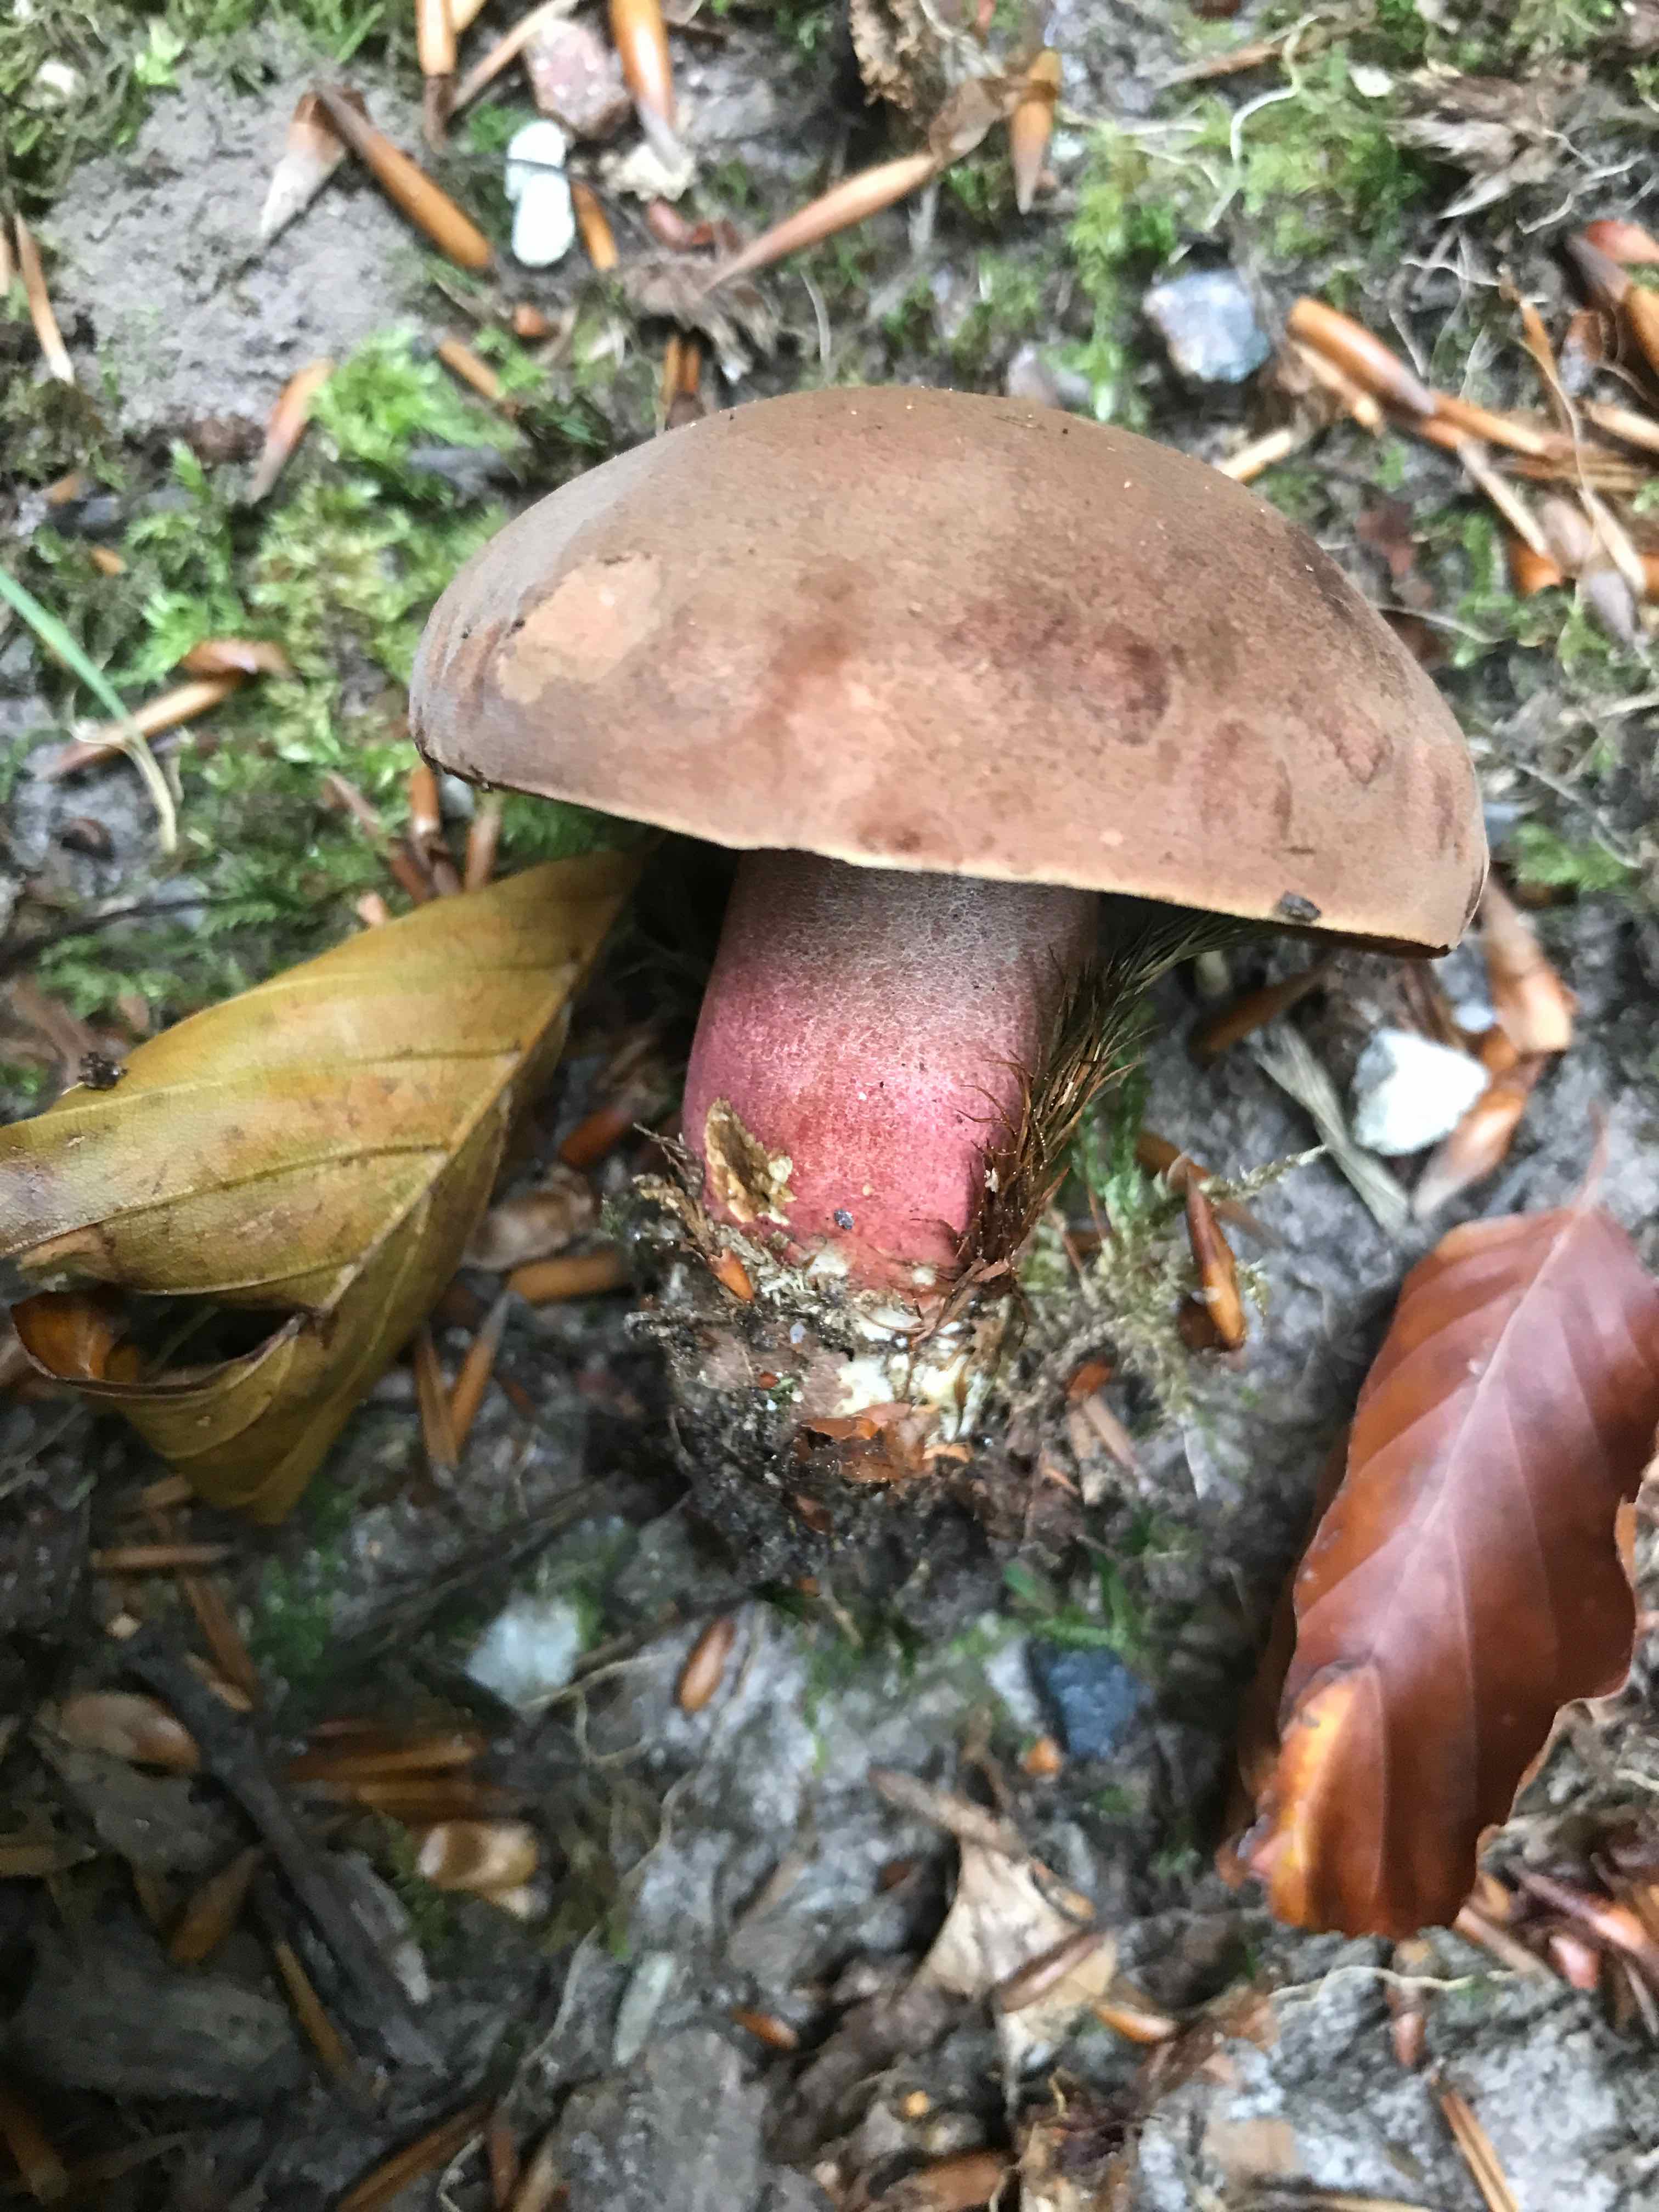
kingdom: Fungi
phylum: Basidiomycota
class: Agaricomycetes
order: Boletales
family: Boletaceae
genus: Neoboletus
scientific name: Neoboletus erythropus
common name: punktstokket indigorørhat
